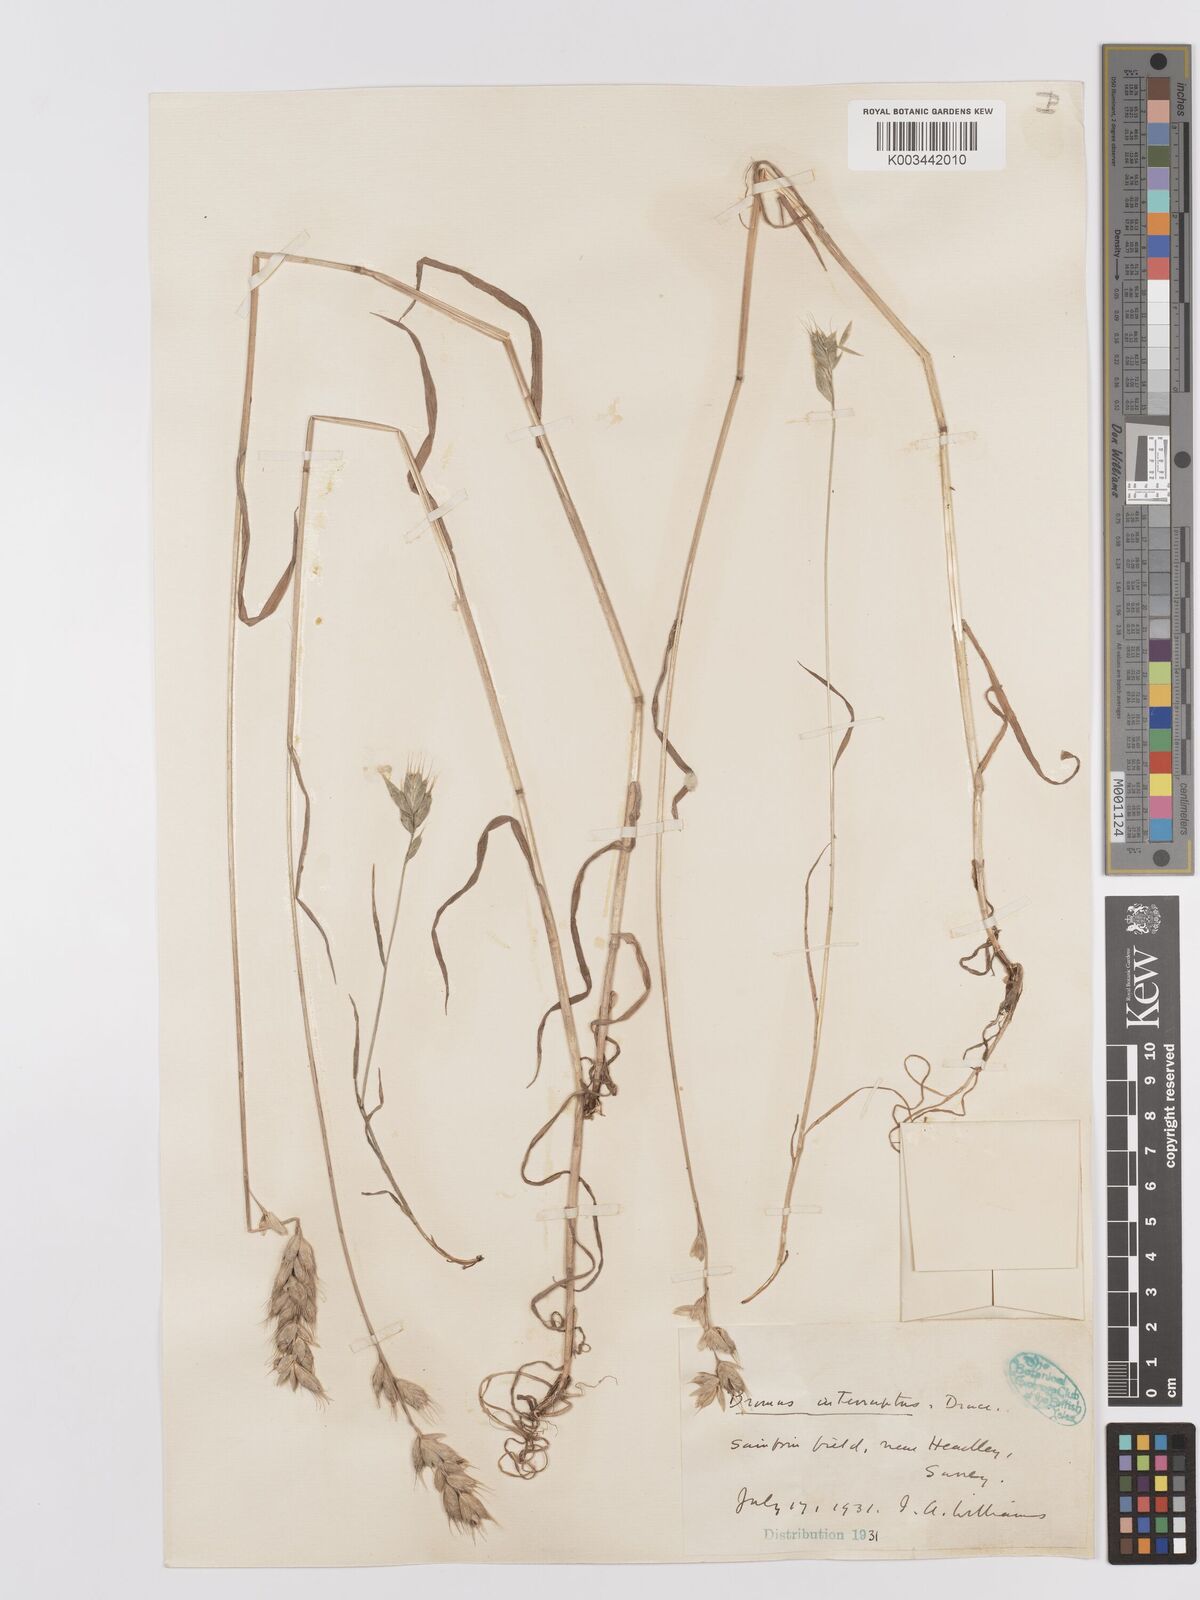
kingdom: Plantae
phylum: Tracheophyta
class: Liliopsida
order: Poales
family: Poaceae
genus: Bromus
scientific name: Bromus interruptus
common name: Interrupted brome
